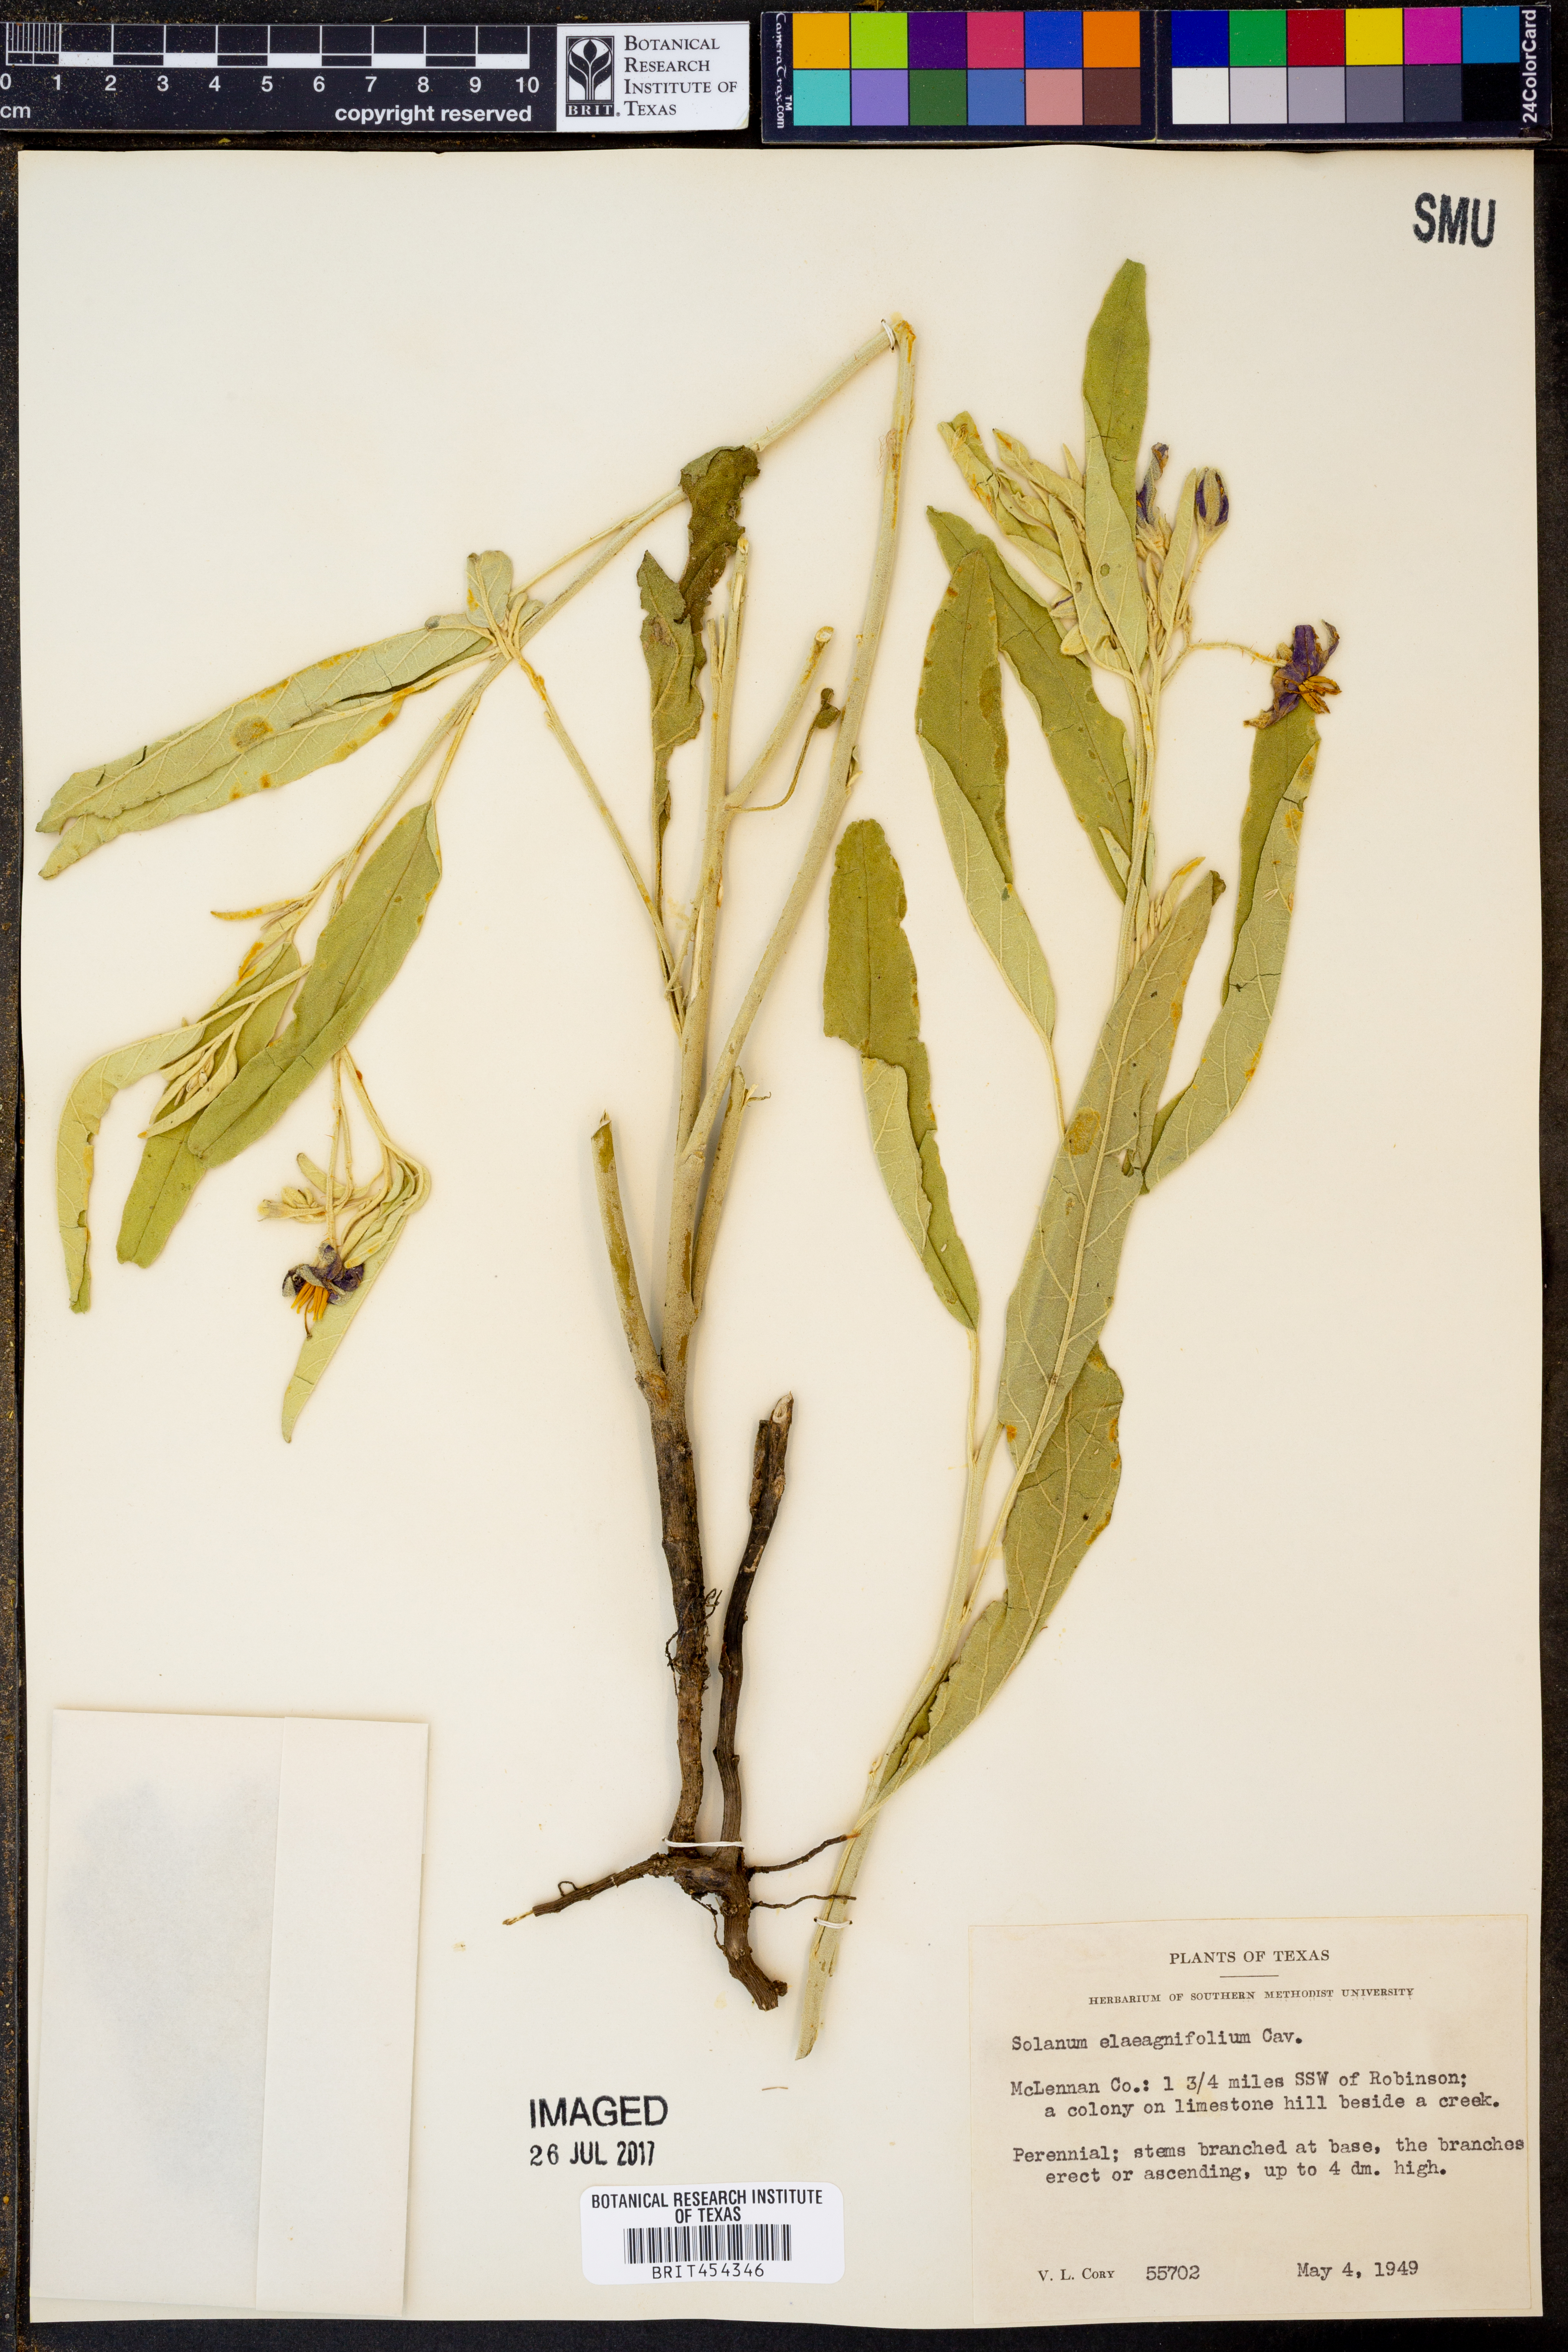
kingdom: Plantae
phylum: Tracheophyta
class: Magnoliopsida
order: Solanales
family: Solanaceae
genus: Solanum
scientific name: Solanum elaeagnifolium
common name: Silverleaf nightshade
